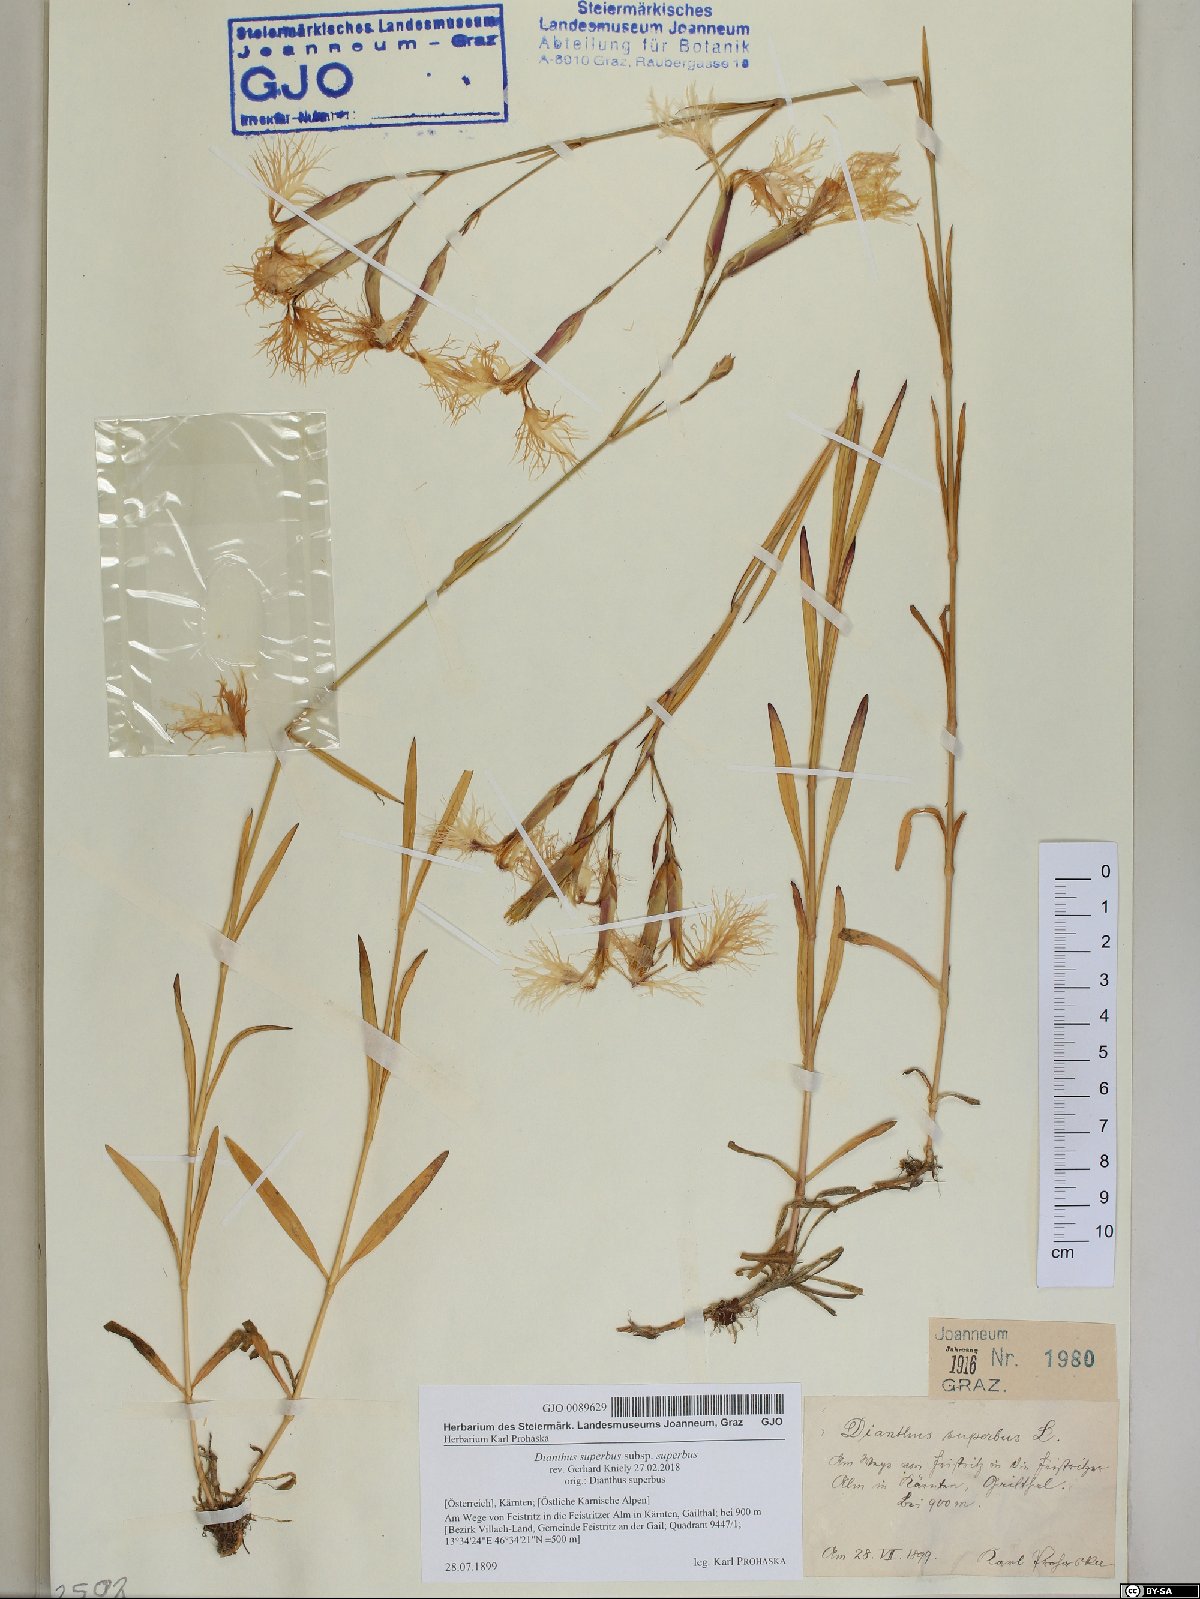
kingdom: Plantae
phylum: Tracheophyta
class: Magnoliopsida
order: Caryophyllales
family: Caryophyllaceae
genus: Dianthus
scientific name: Dianthus superbus
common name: Fringed pink
